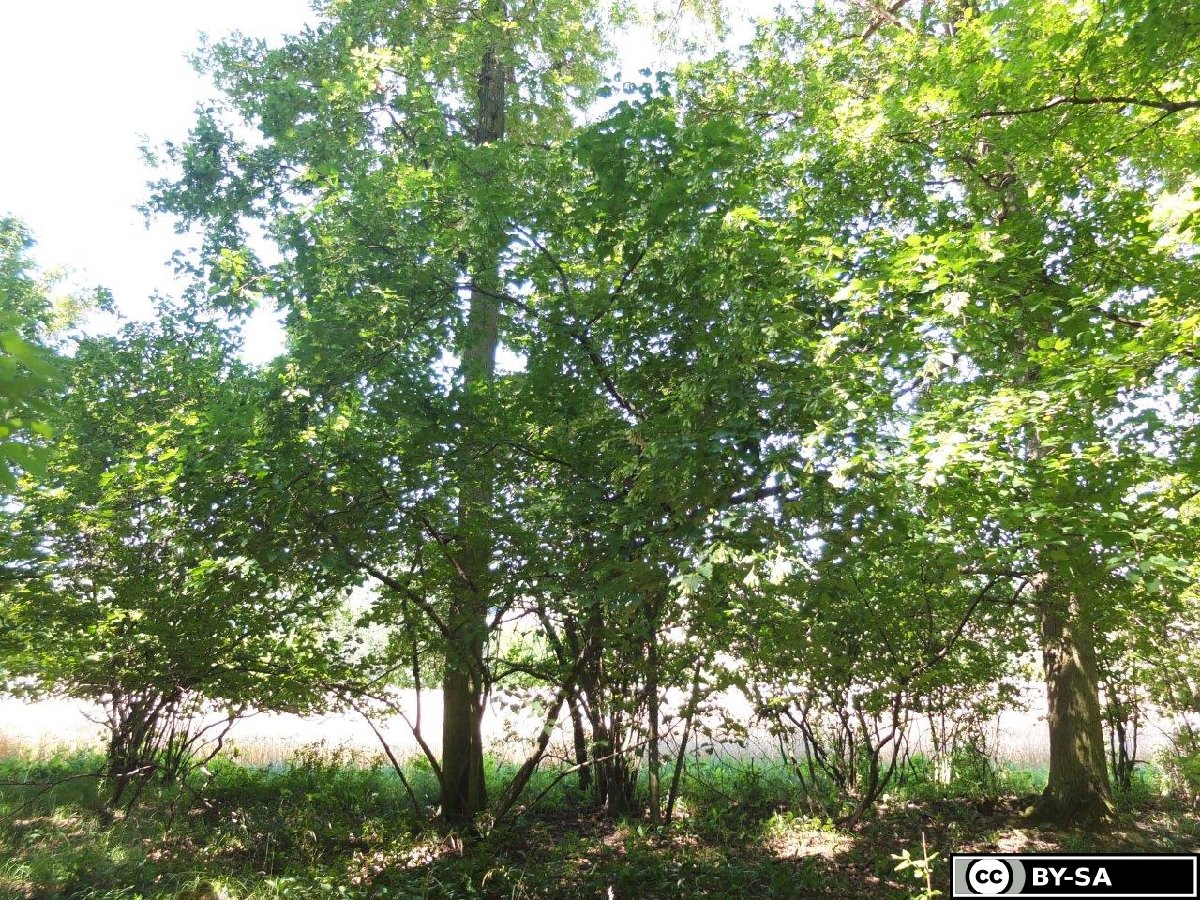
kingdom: Plantae
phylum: Tracheophyta
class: Magnoliopsida
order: Sapindales
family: Sapindaceae
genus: Acer
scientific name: Acer tataricum
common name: Tartar maple
